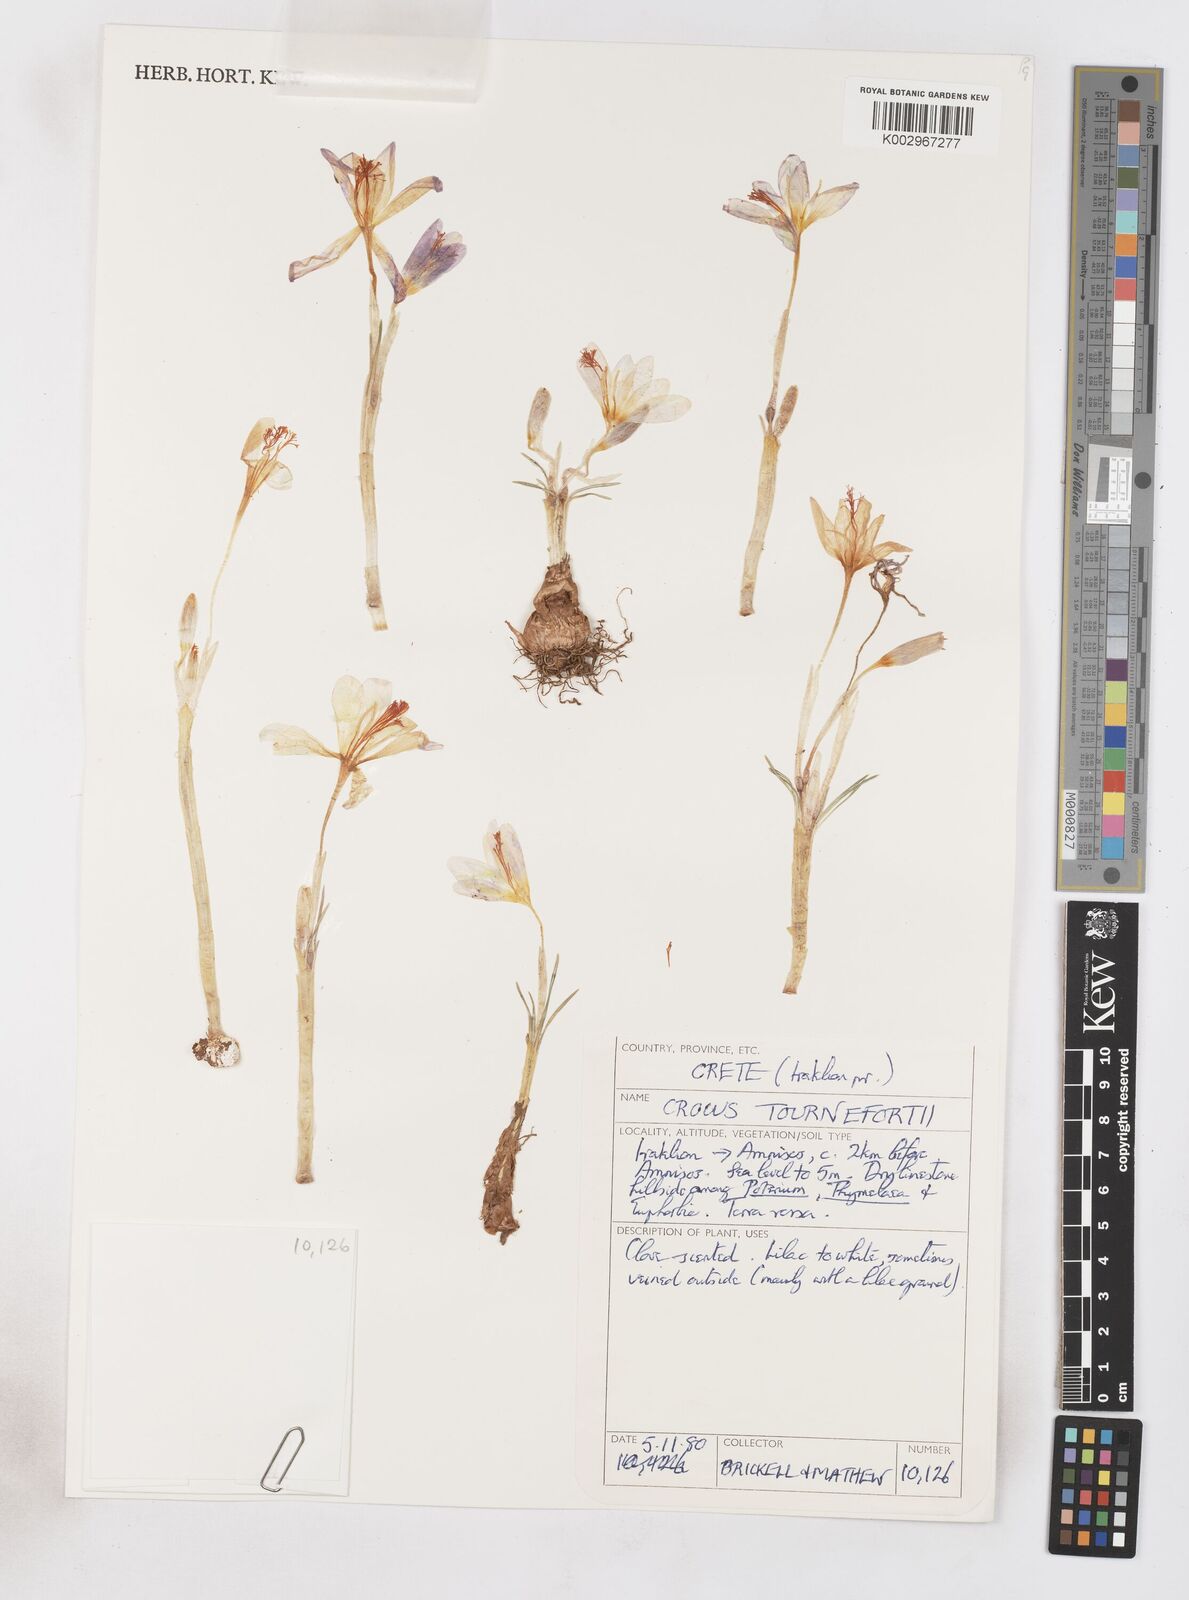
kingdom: Plantae
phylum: Tracheophyta
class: Liliopsida
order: Asparagales
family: Iridaceae
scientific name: Iridaceae
